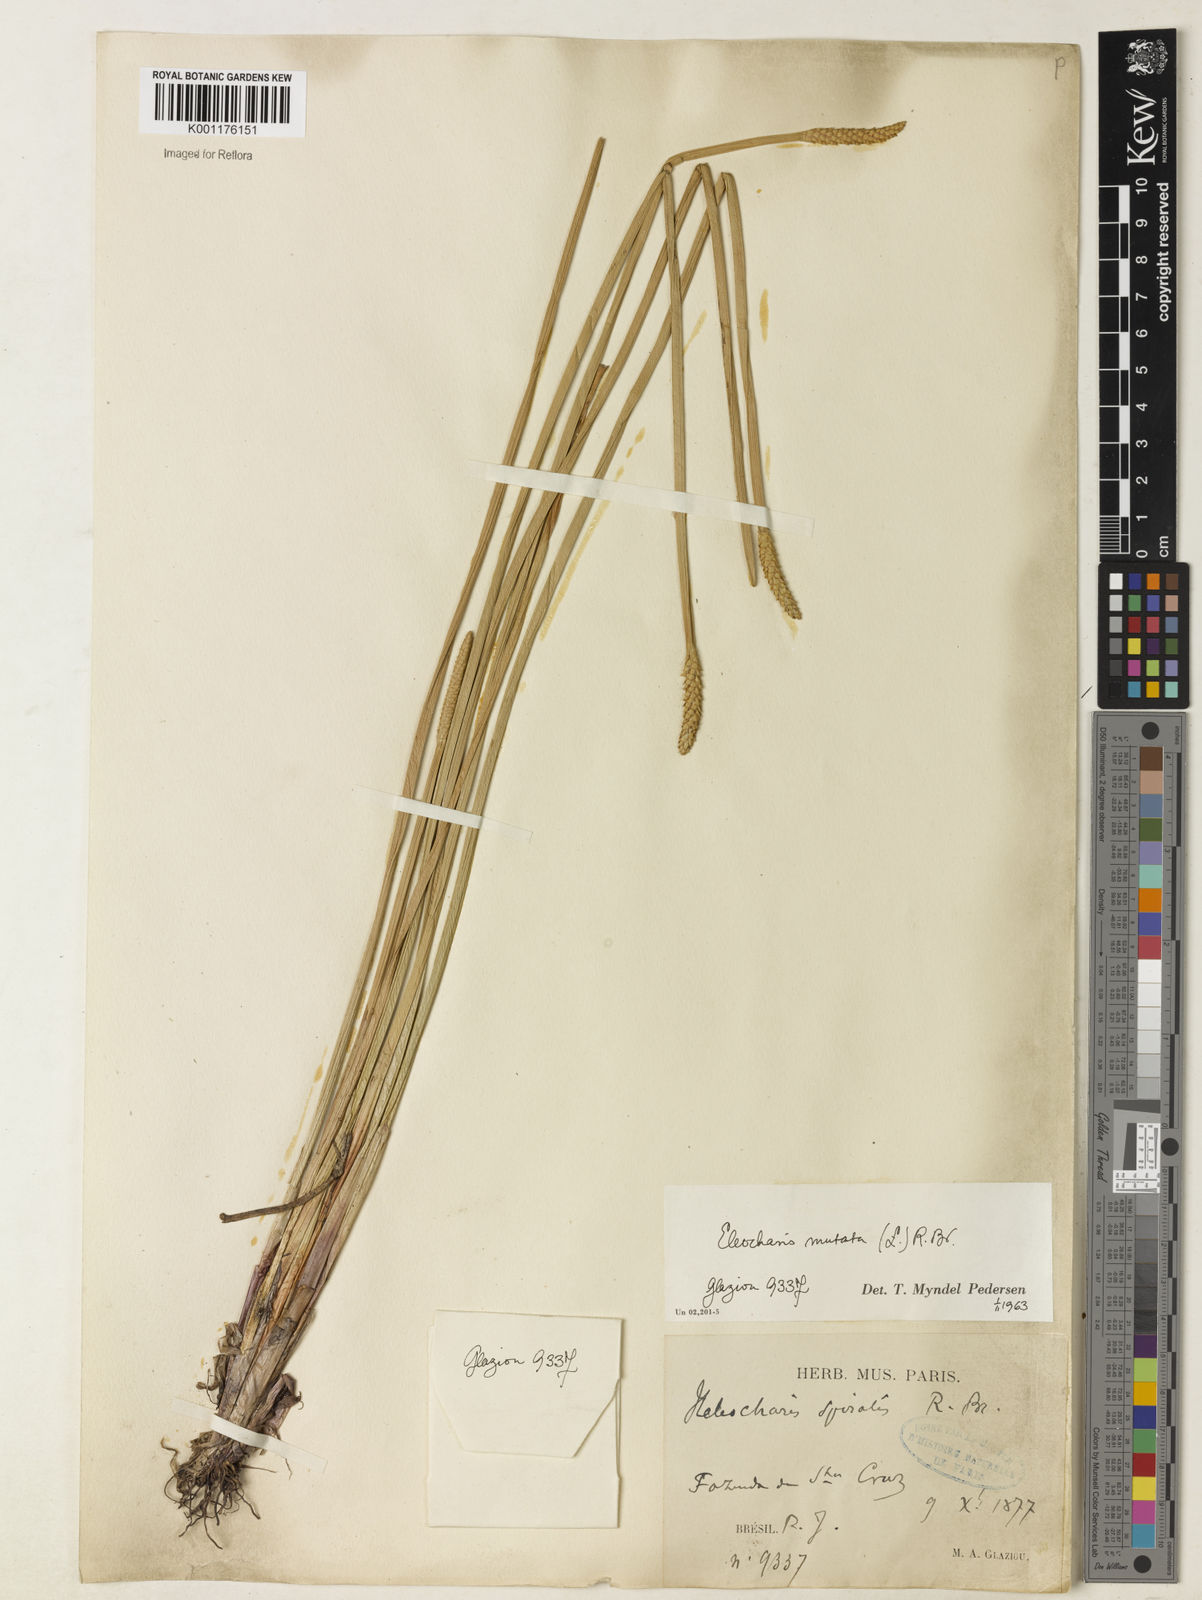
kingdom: Plantae
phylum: Tracheophyta
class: Liliopsida
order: Poales
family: Cyperaceae
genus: Eleocharis
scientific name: Eleocharis mutata
